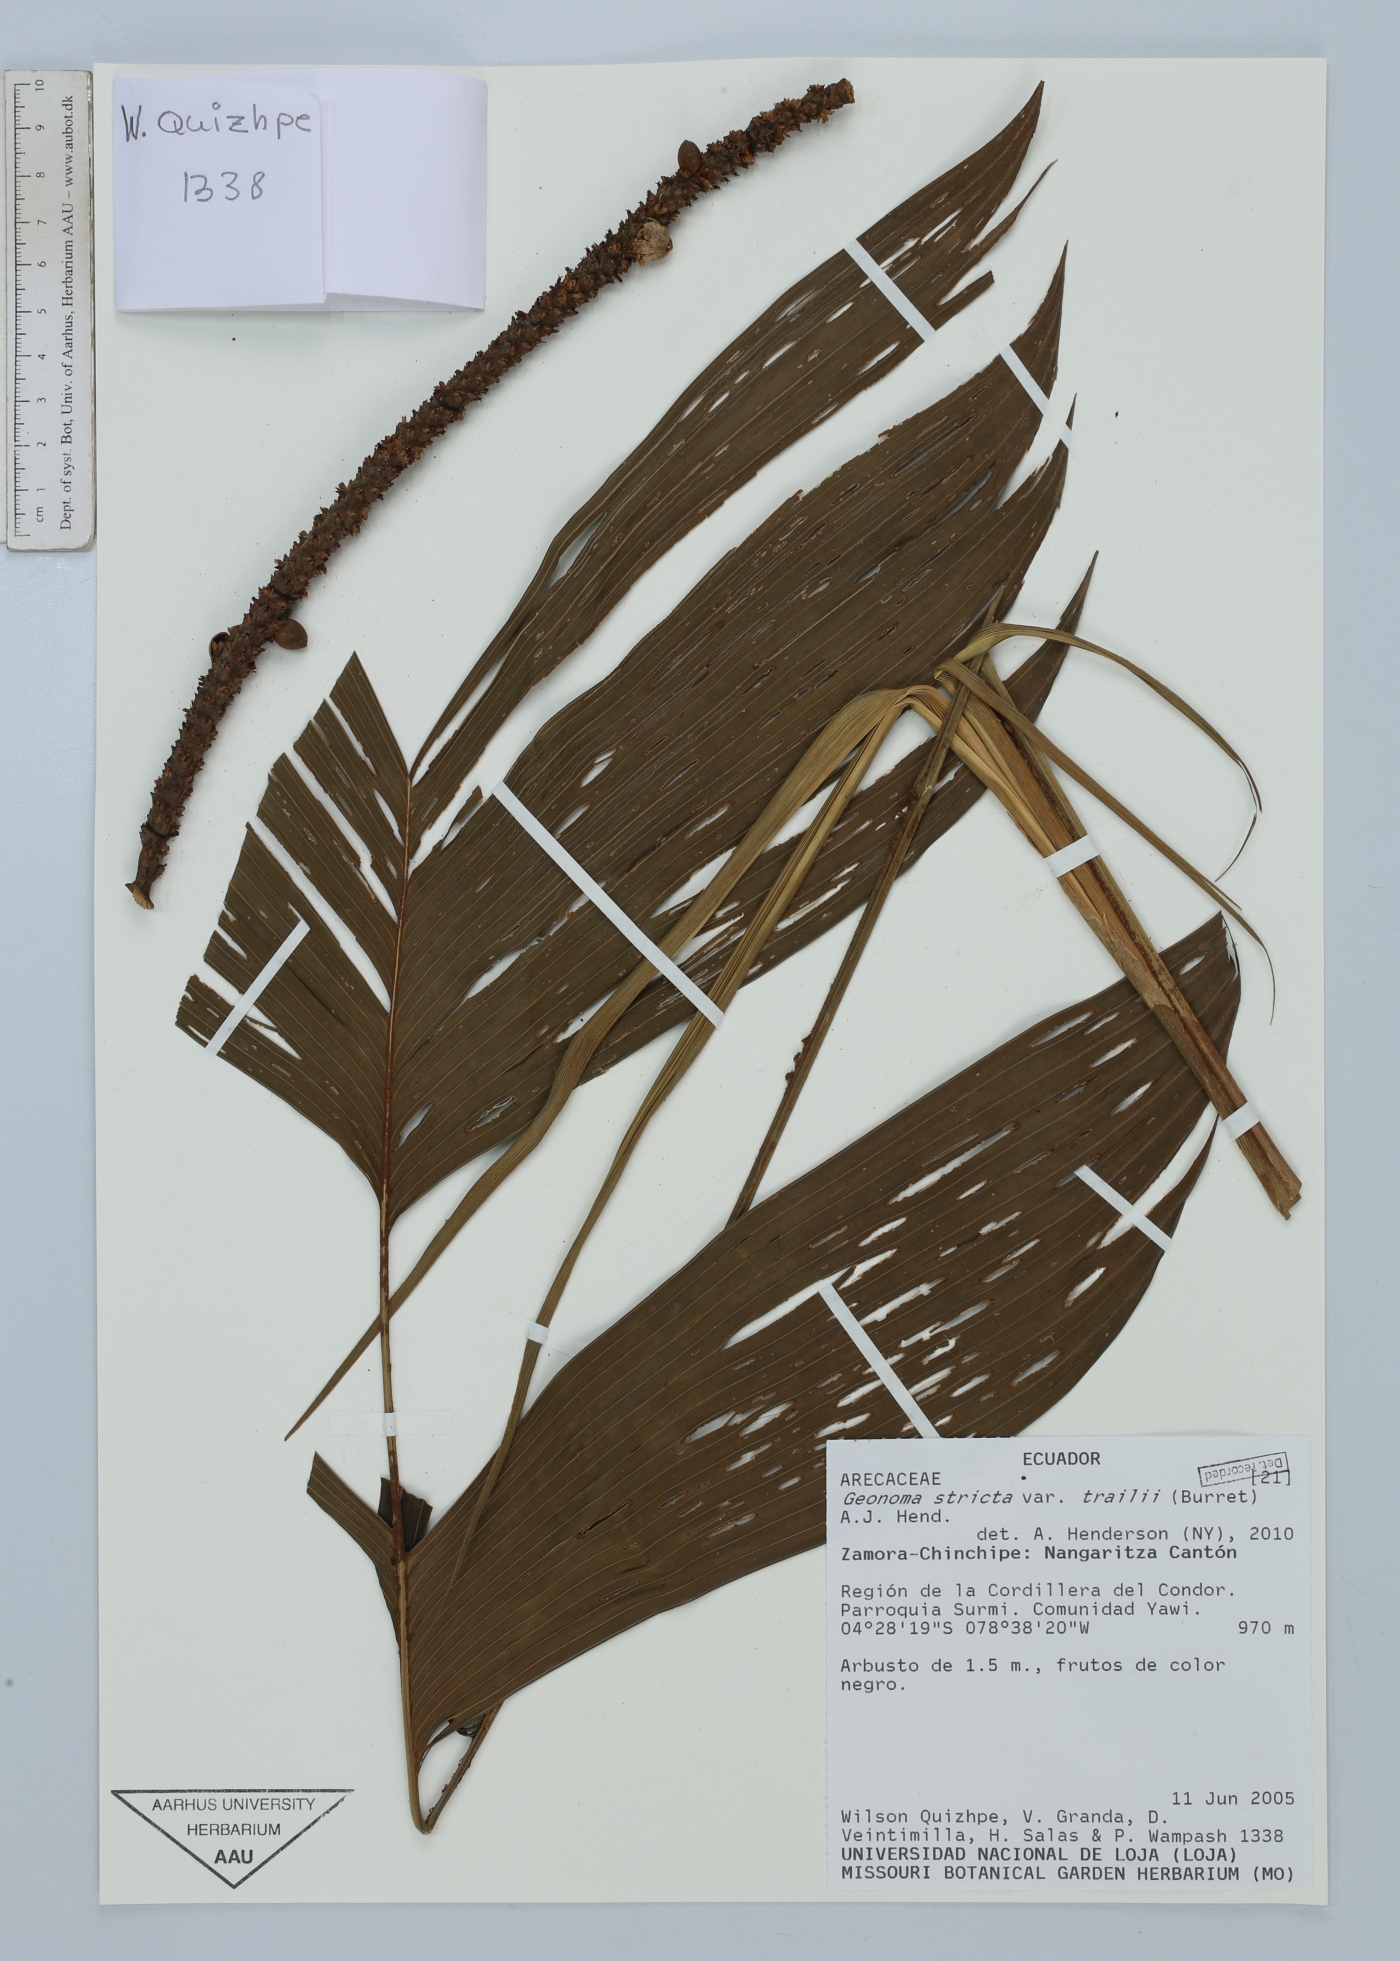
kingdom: Plantae
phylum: Tracheophyta
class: Liliopsida
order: Arecales
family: Arecaceae
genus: Geonoma
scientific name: Geonoma stricta
